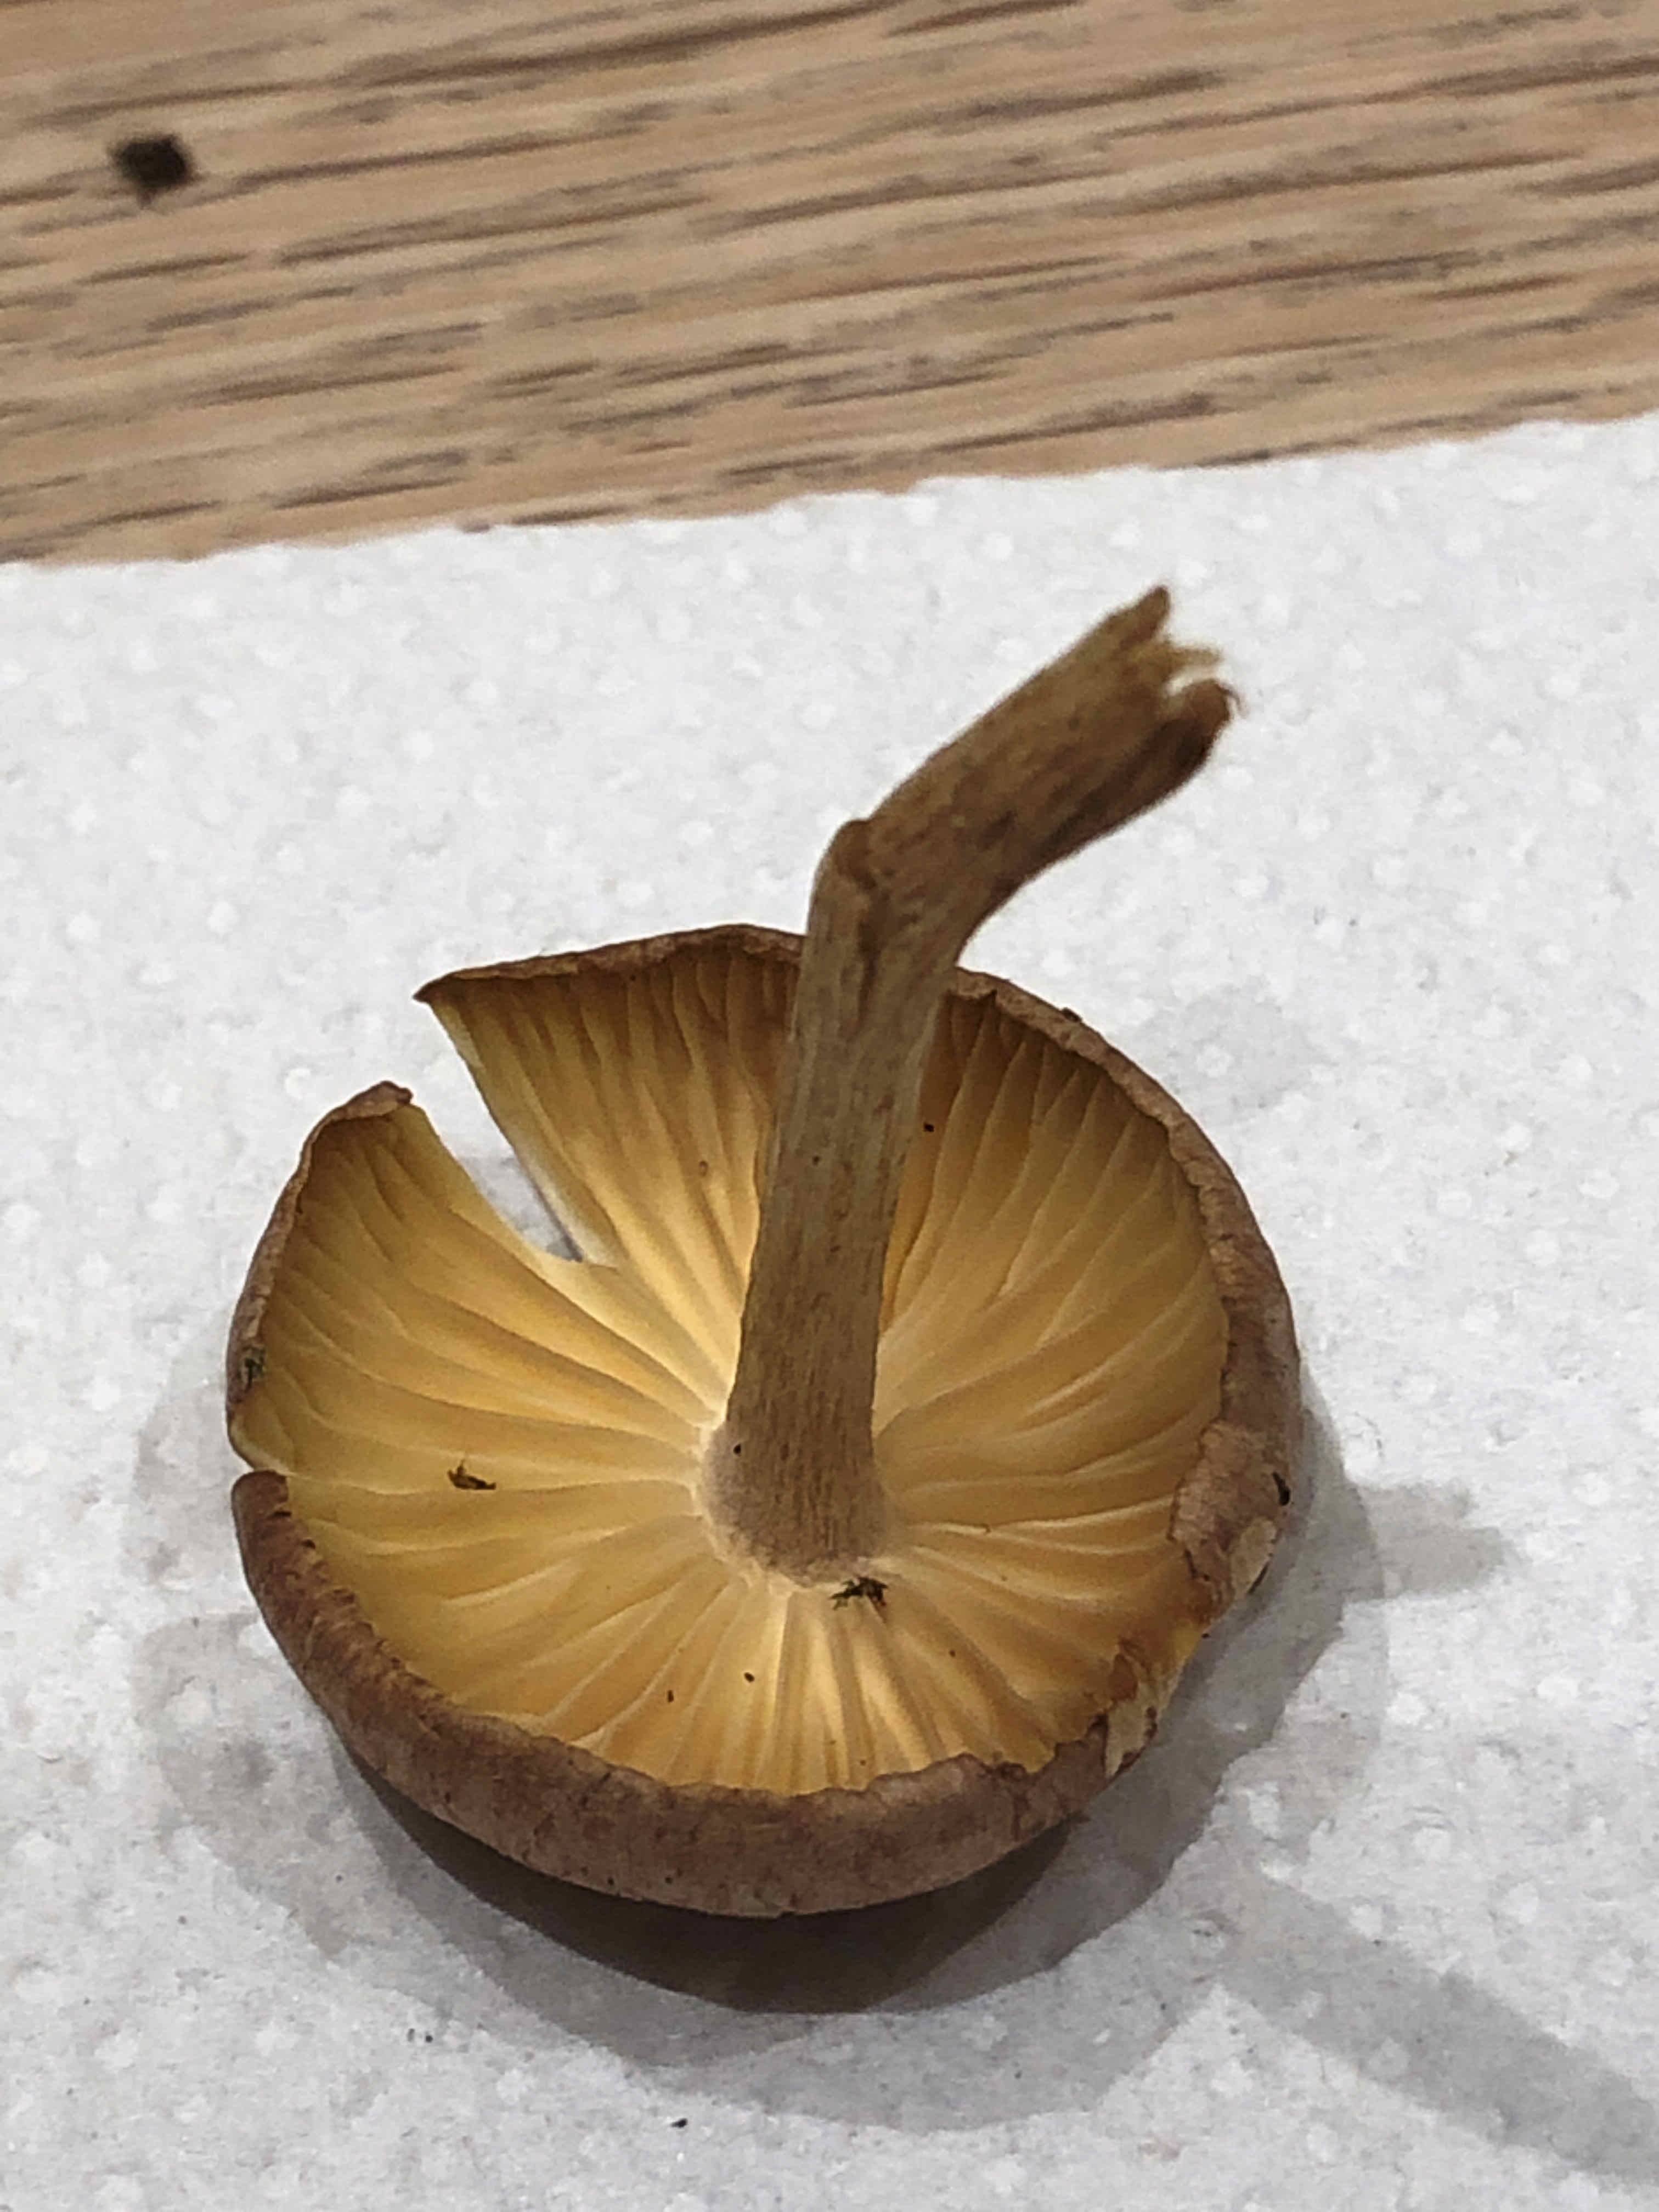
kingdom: Fungi
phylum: Basidiomycota
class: Agaricomycetes
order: Agaricales
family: Omphalotaceae
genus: Collybiopsis
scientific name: Collybiopsis peronata
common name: bestøvlet fladhat
